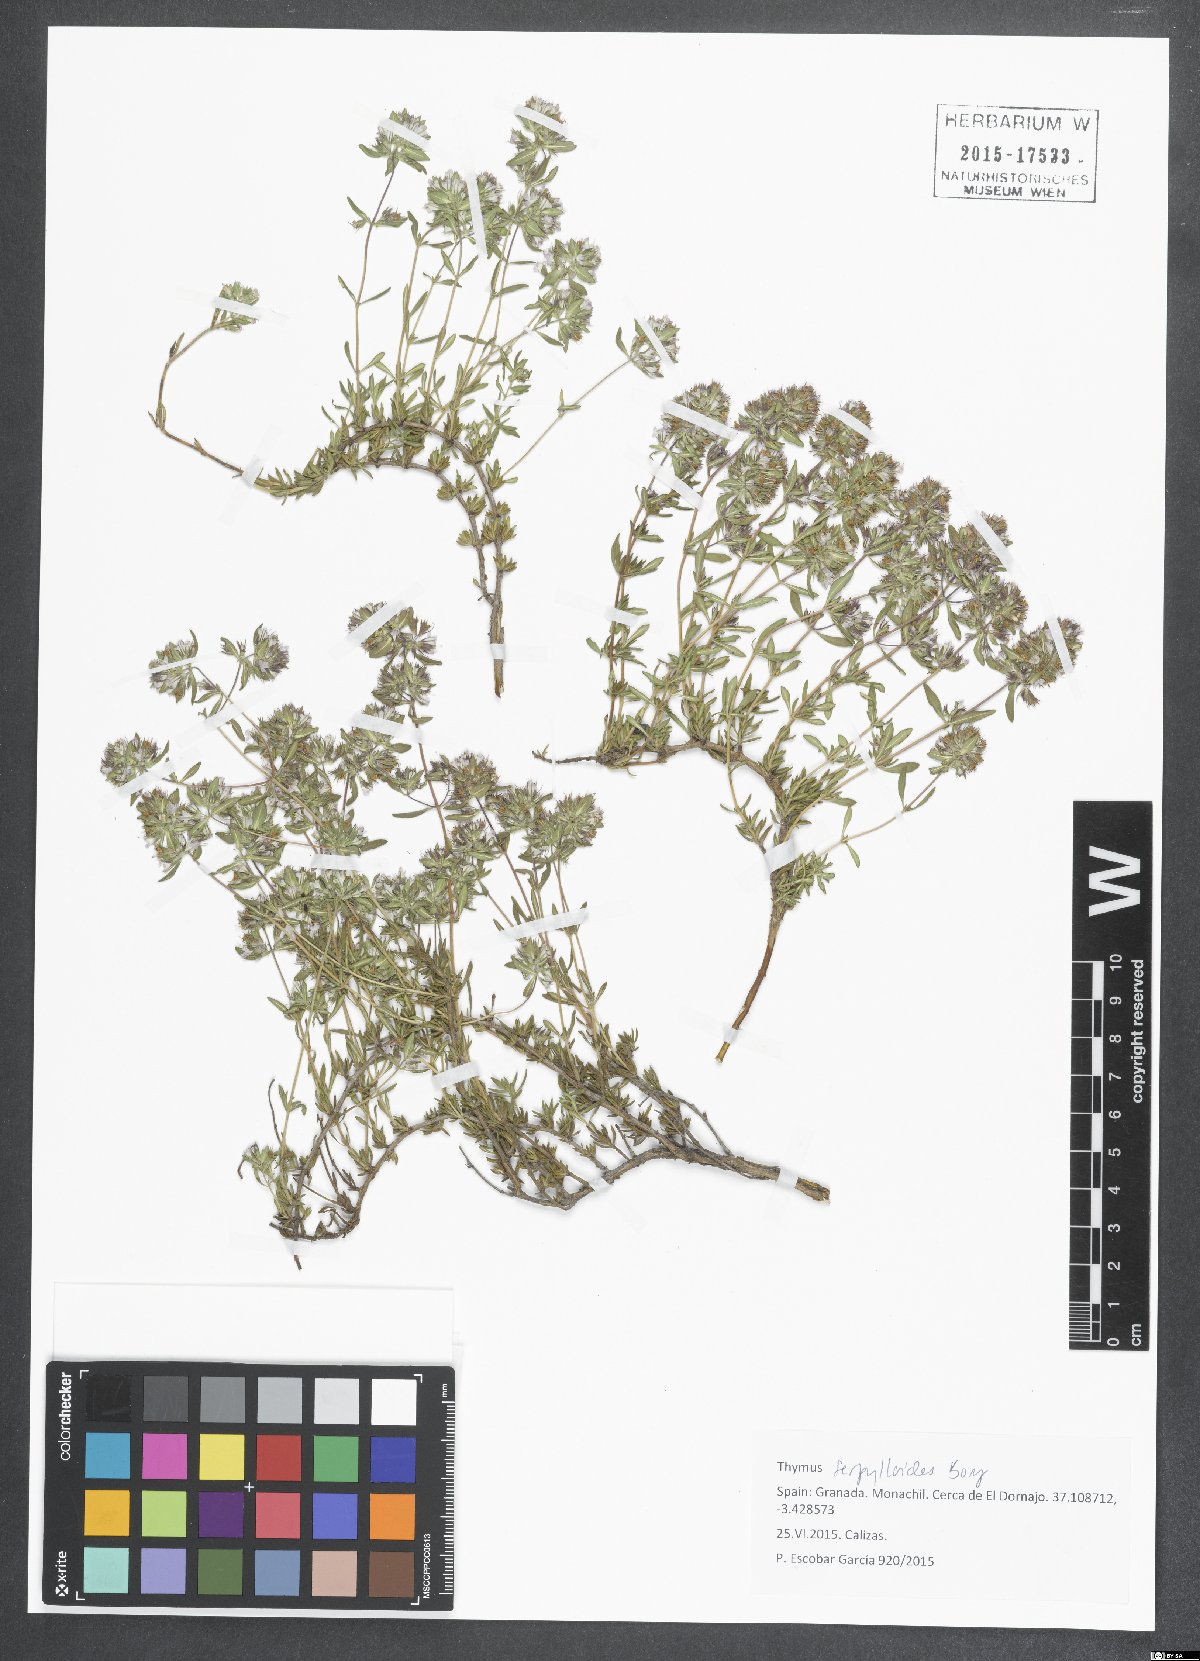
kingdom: Plantae
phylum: Tracheophyta
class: Magnoliopsida
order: Lamiales
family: Lamiaceae
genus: Thymus
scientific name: Thymus serpylloides
